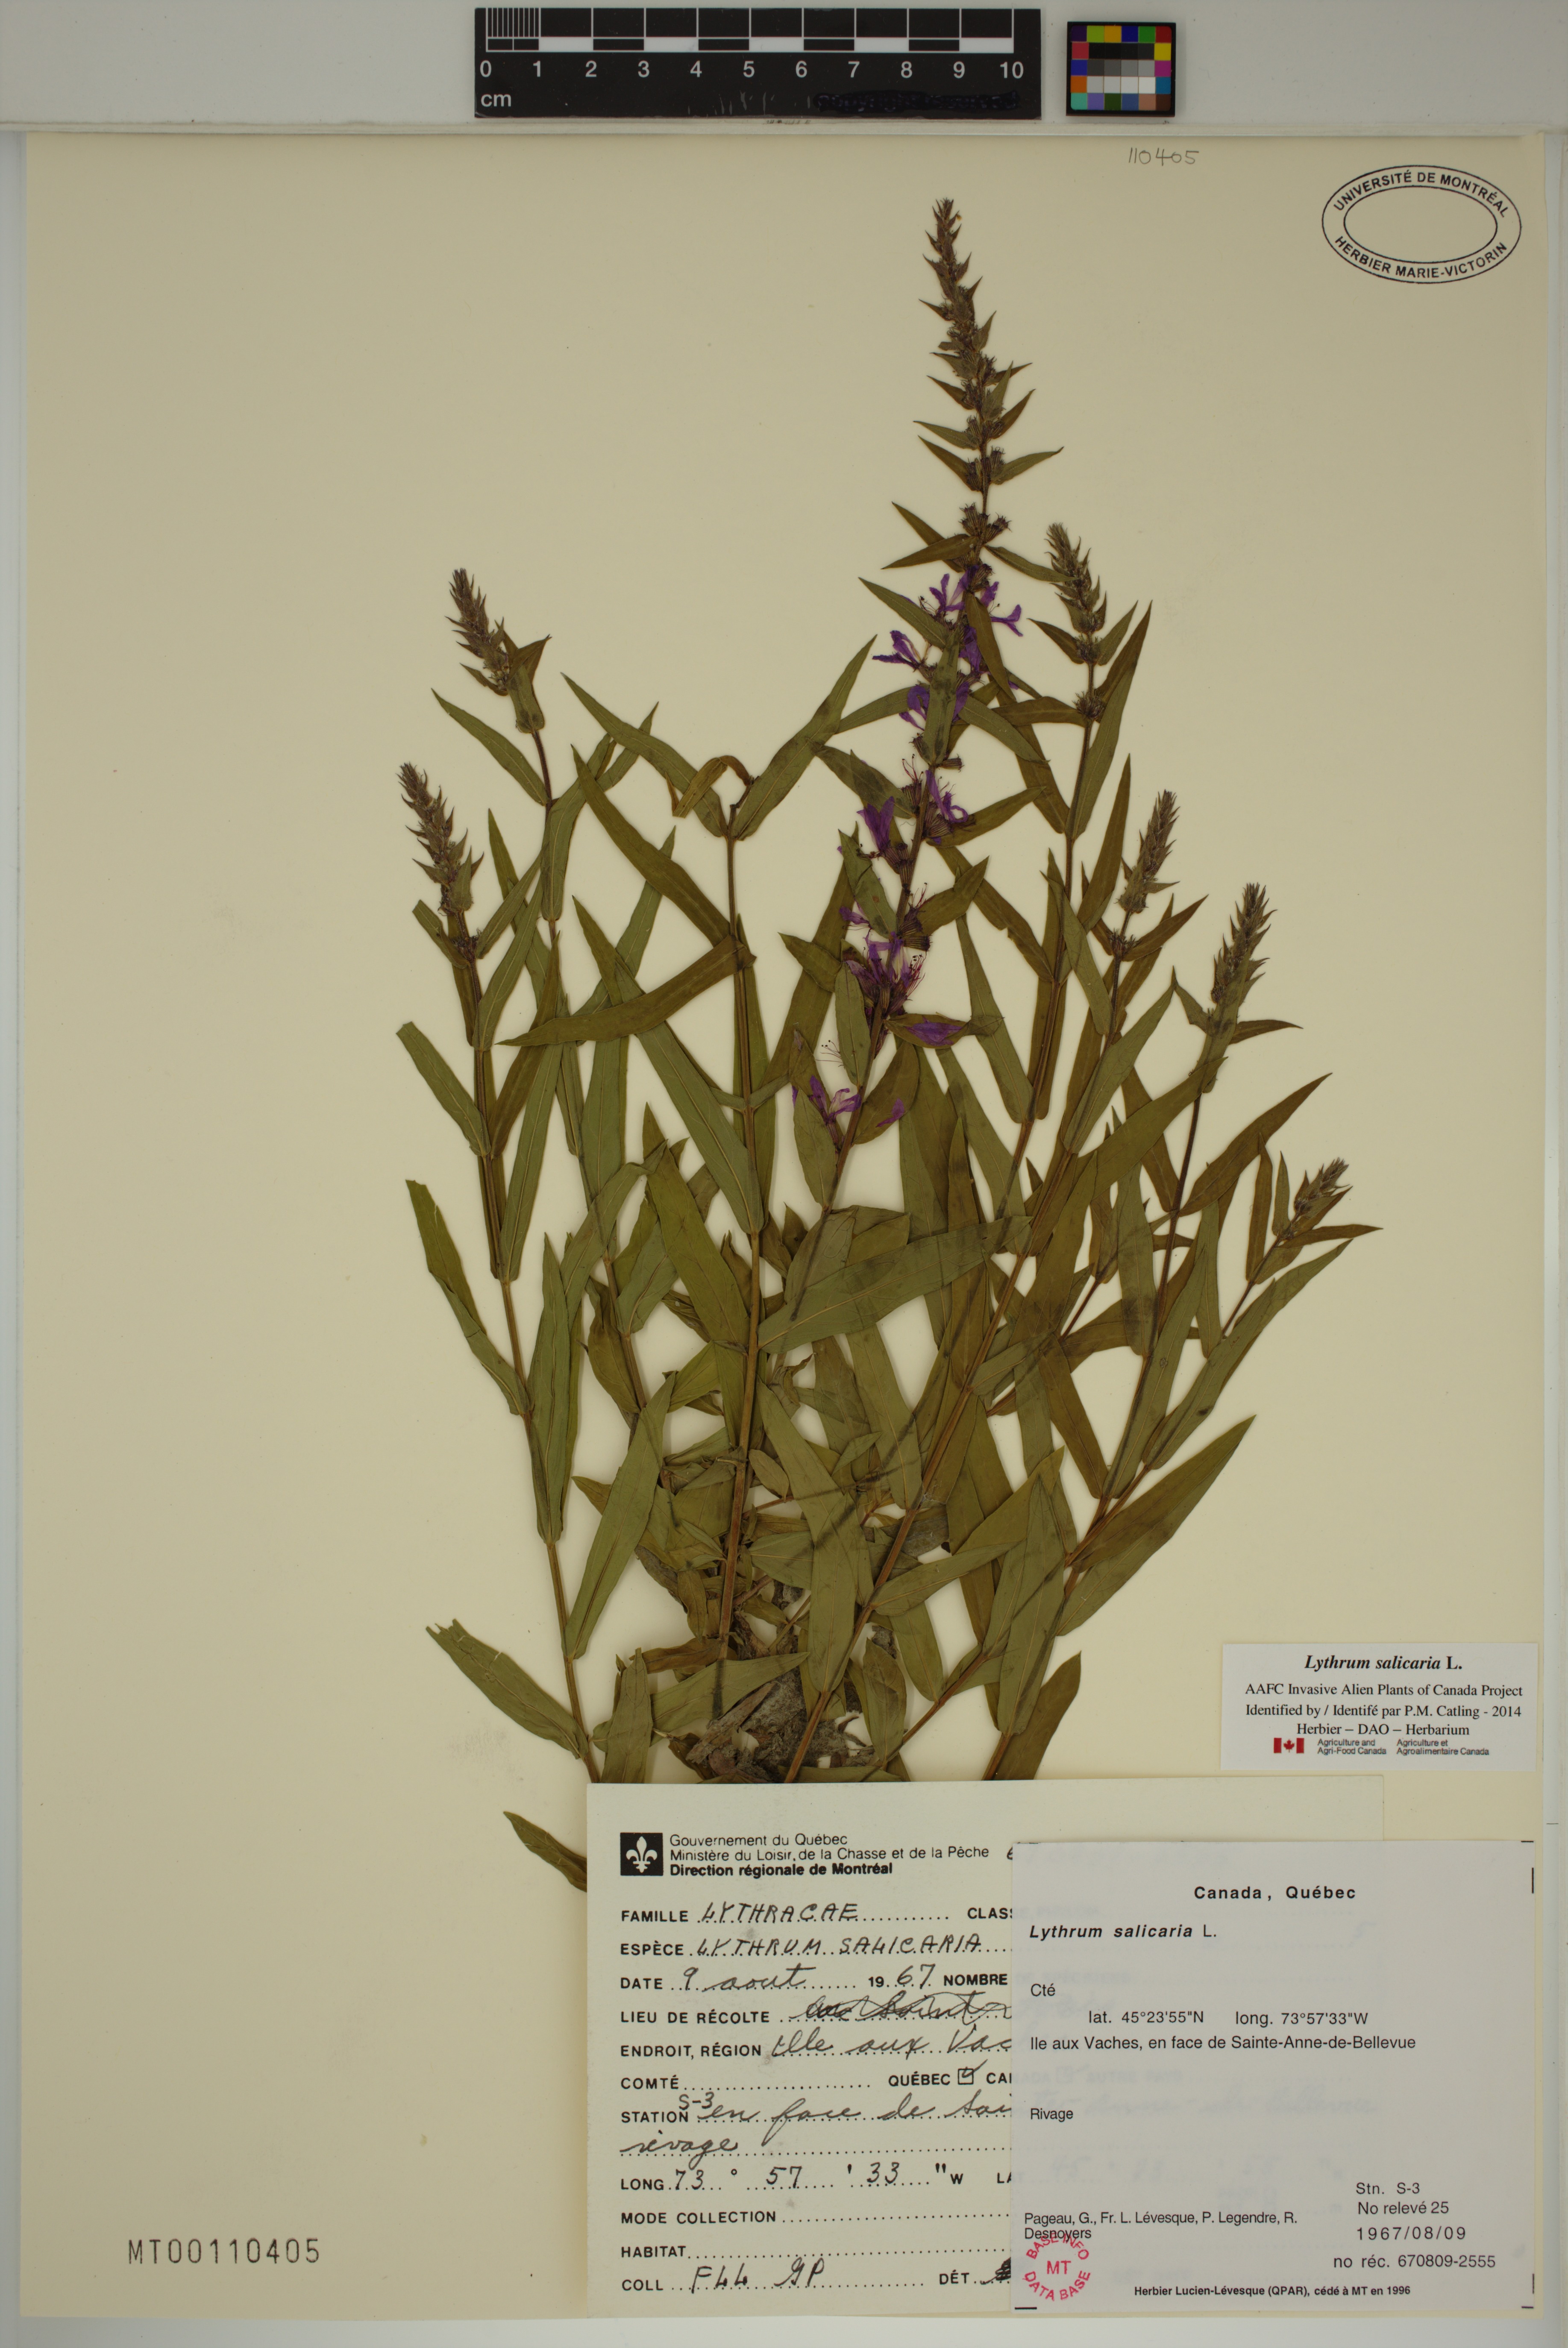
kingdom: Plantae
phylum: Tracheophyta
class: Magnoliopsida
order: Myrtales
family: Lythraceae
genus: Lythrum
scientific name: Lythrum salicaria
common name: Purple loosestrife
